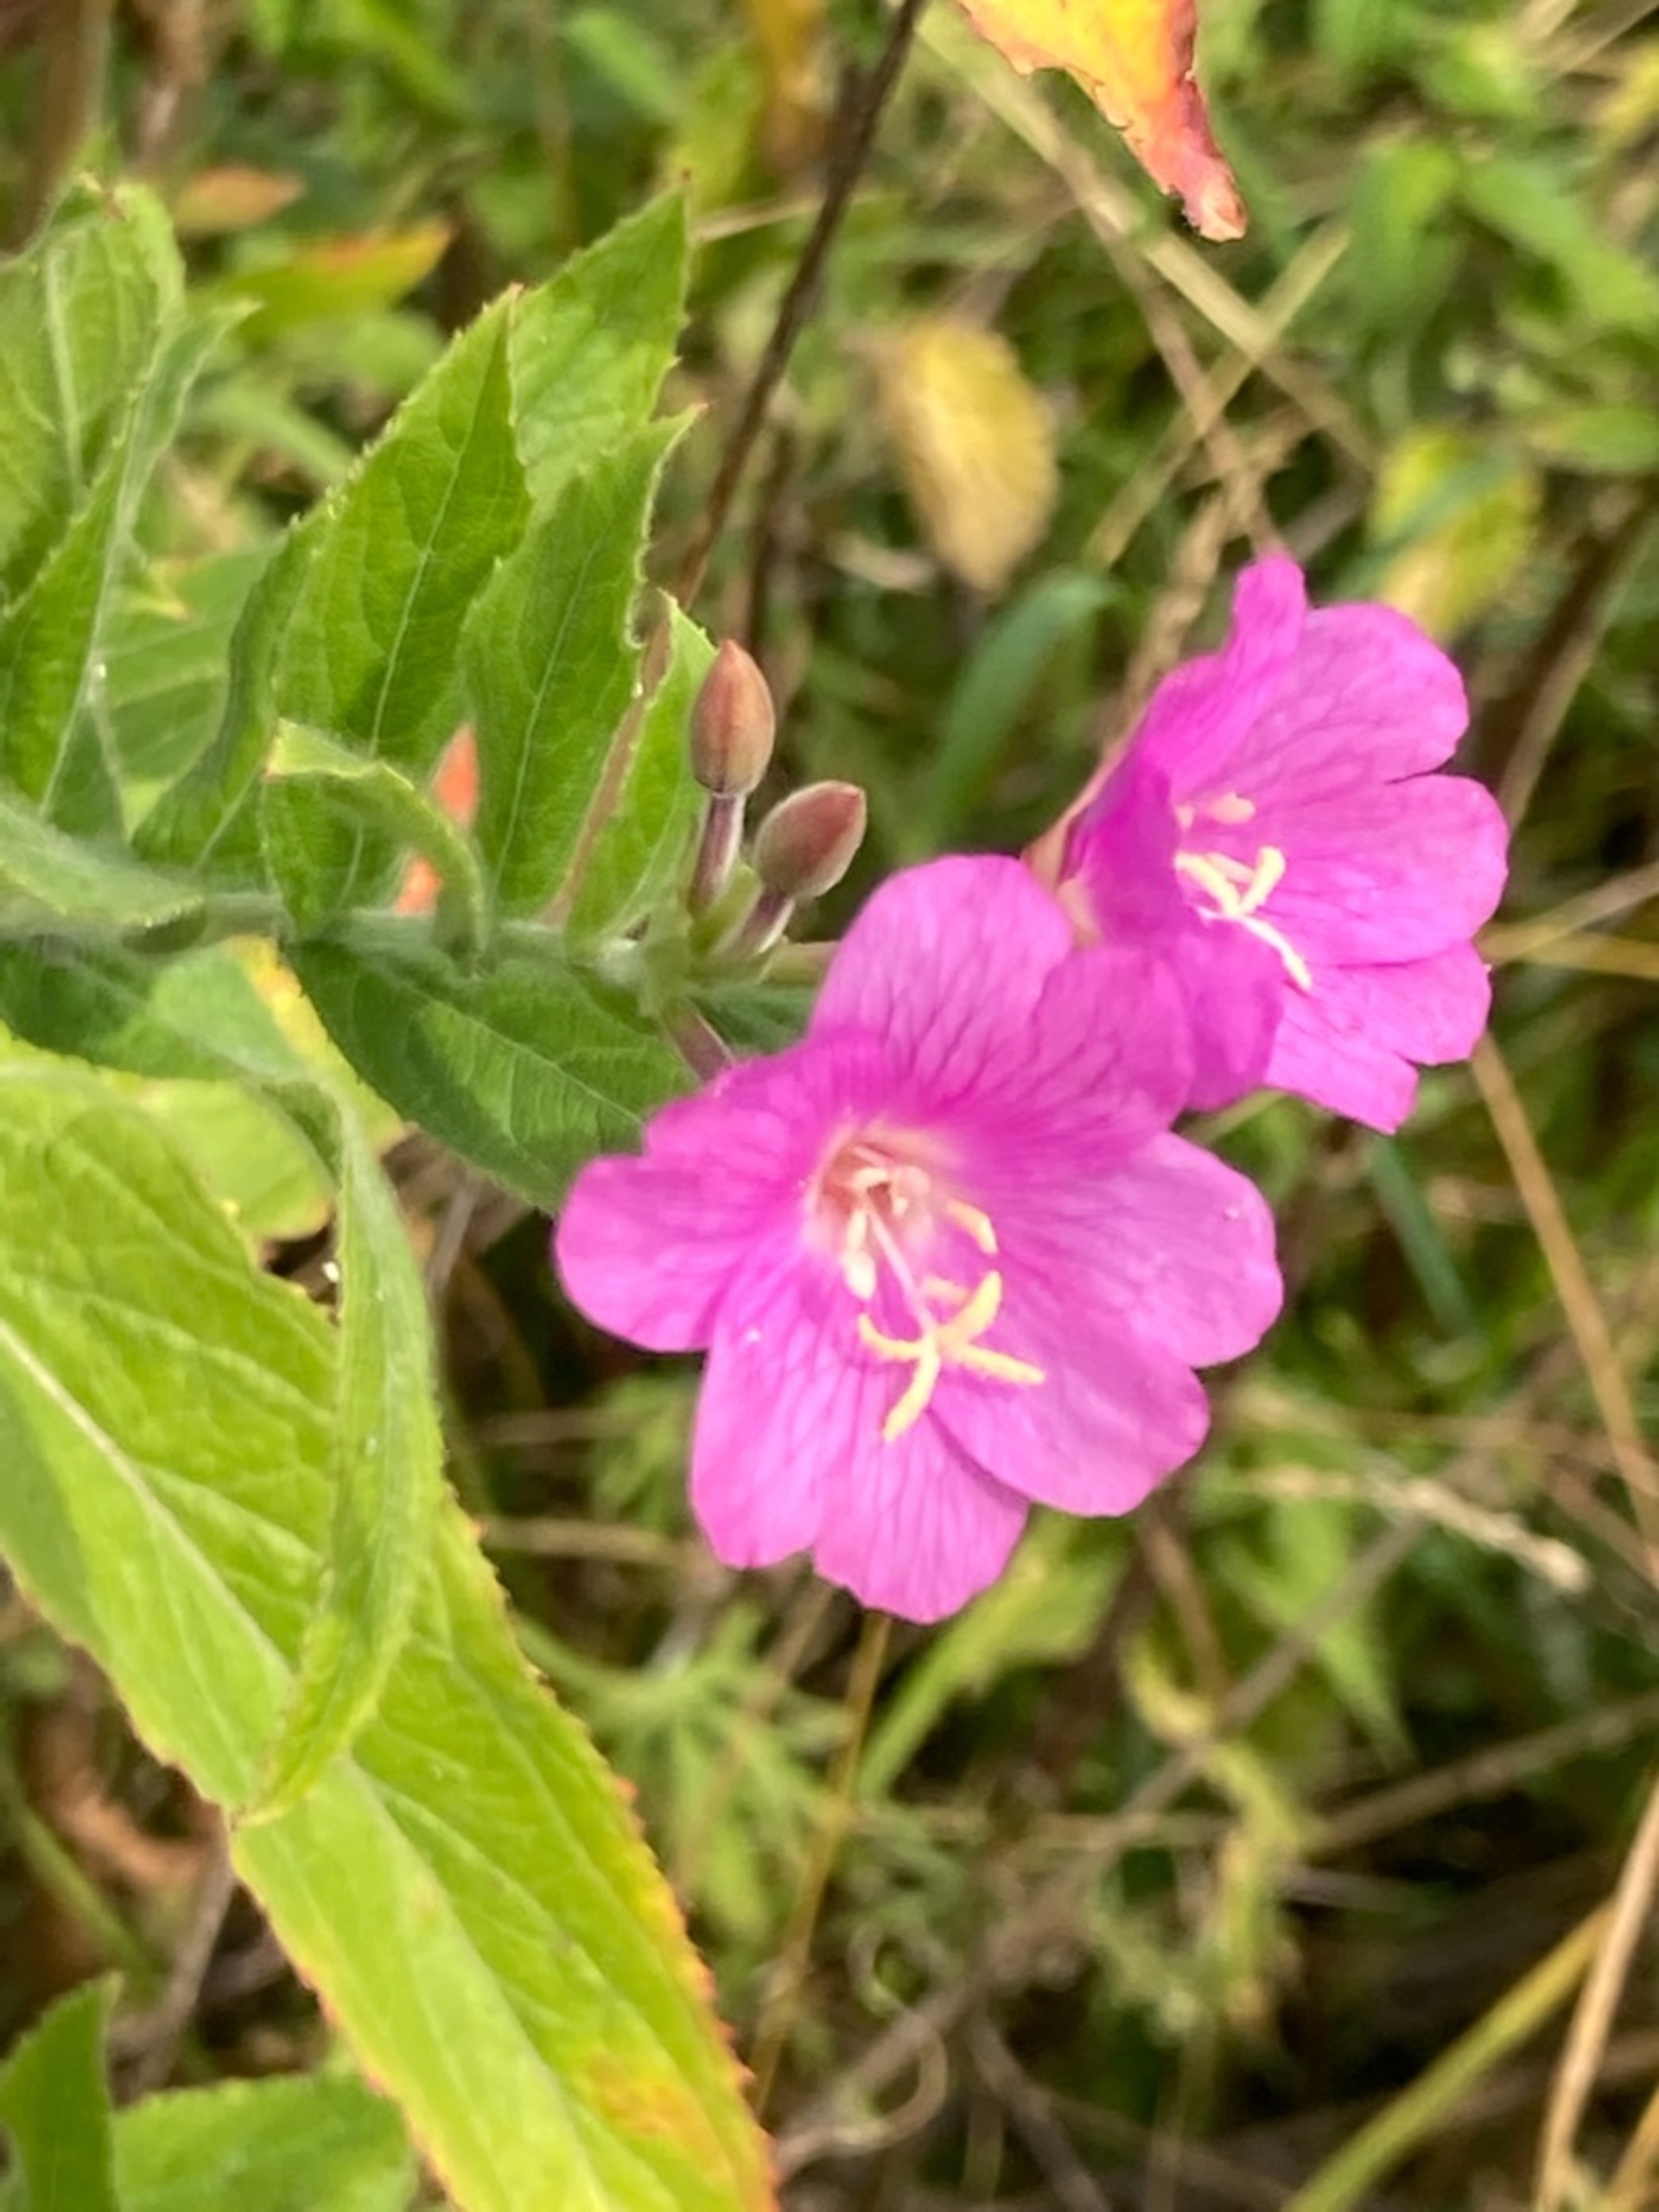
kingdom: Plantae
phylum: Tracheophyta
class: Magnoliopsida
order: Myrtales
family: Onagraceae
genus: Epilobium
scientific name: Epilobium hirsutum
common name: Lådden dueurt
